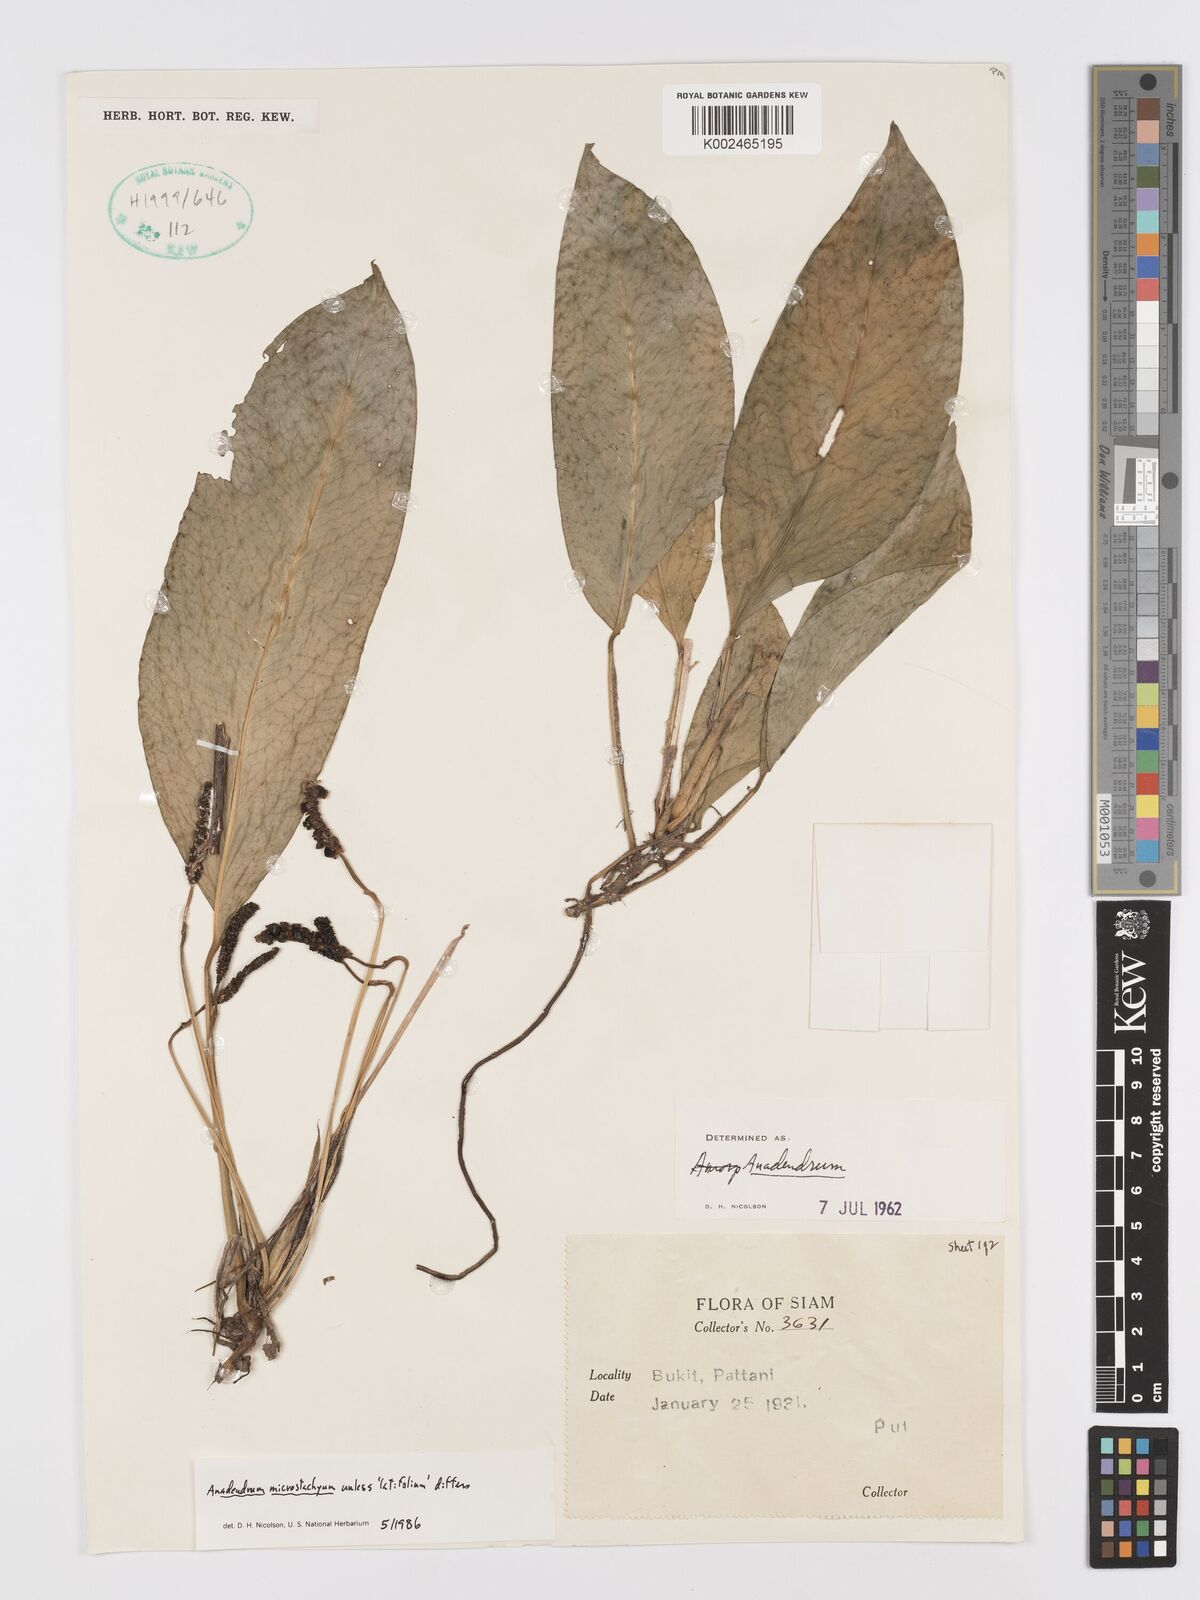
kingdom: Plantae
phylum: Tracheophyta
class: Liliopsida
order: Alismatales
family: Araceae
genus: Anadendrum
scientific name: Anadendrum
